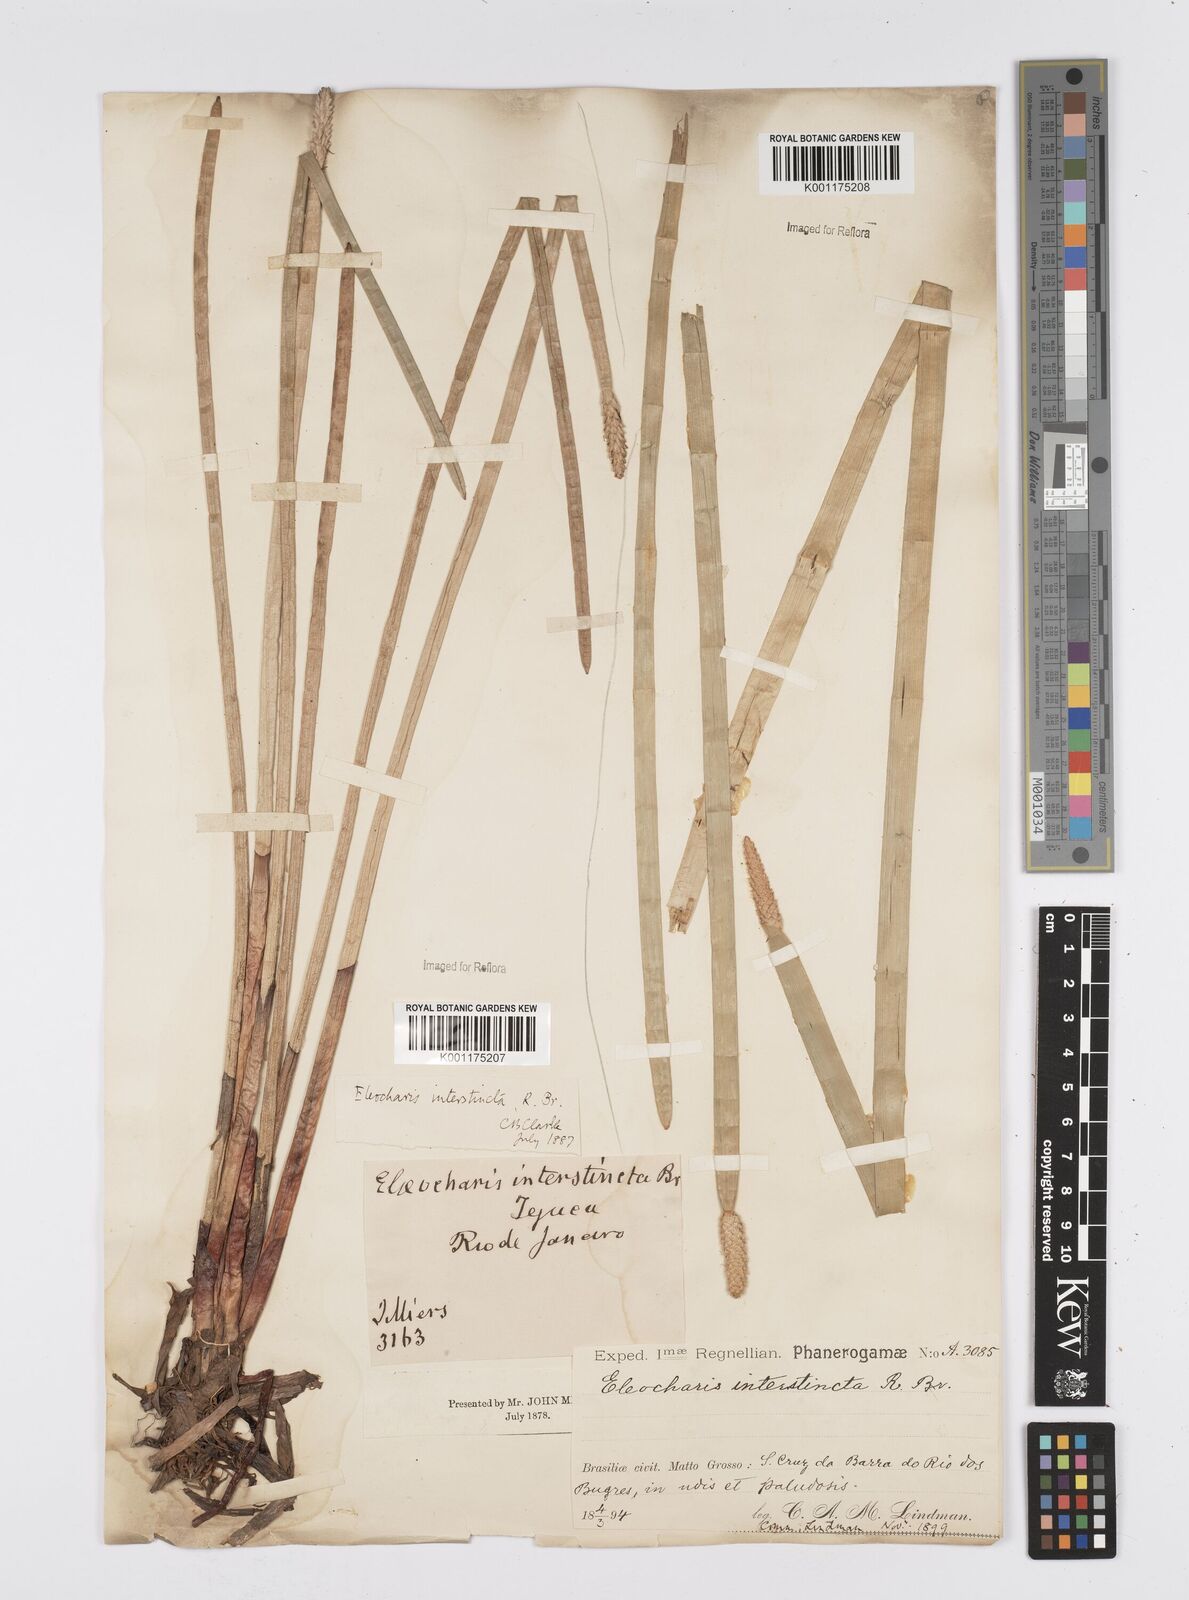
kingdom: Plantae
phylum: Tracheophyta
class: Liliopsida
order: Poales
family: Cyperaceae
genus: Eleocharis
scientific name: Eleocharis interstincta
